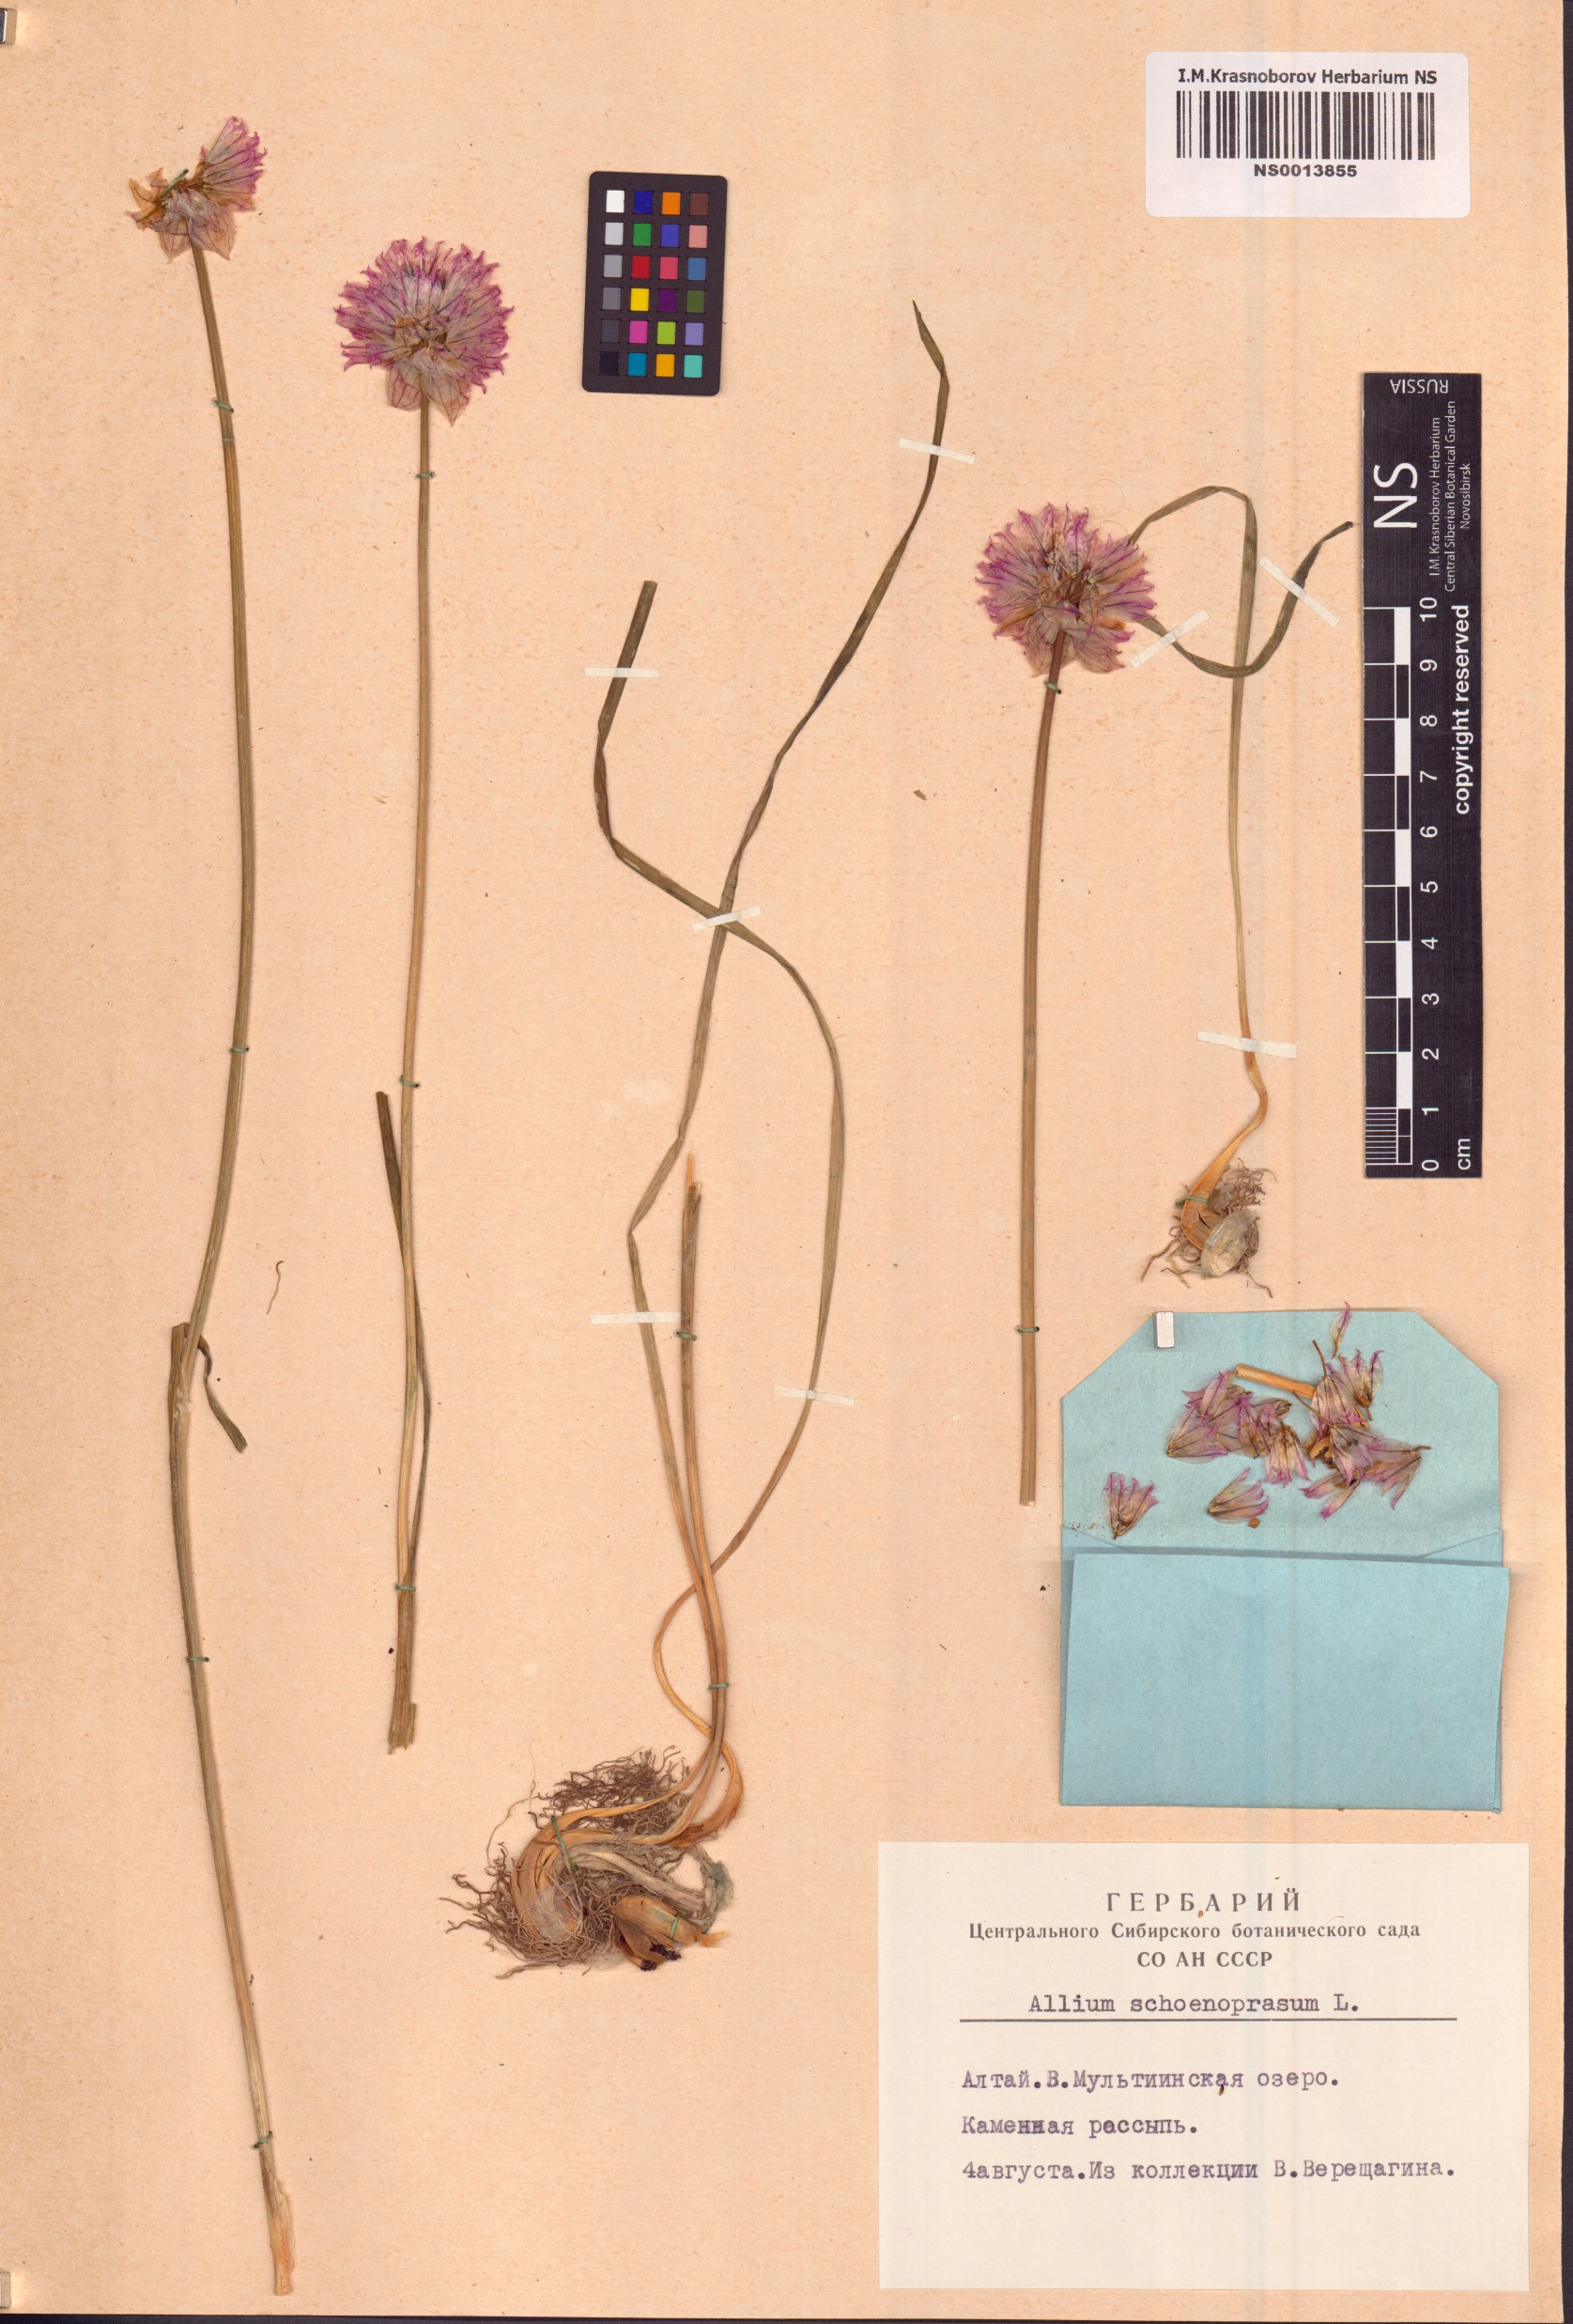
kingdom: Plantae
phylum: Tracheophyta
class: Liliopsida
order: Asparagales
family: Amaryllidaceae
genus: Allium
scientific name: Allium schoenoprasum
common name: Chives
